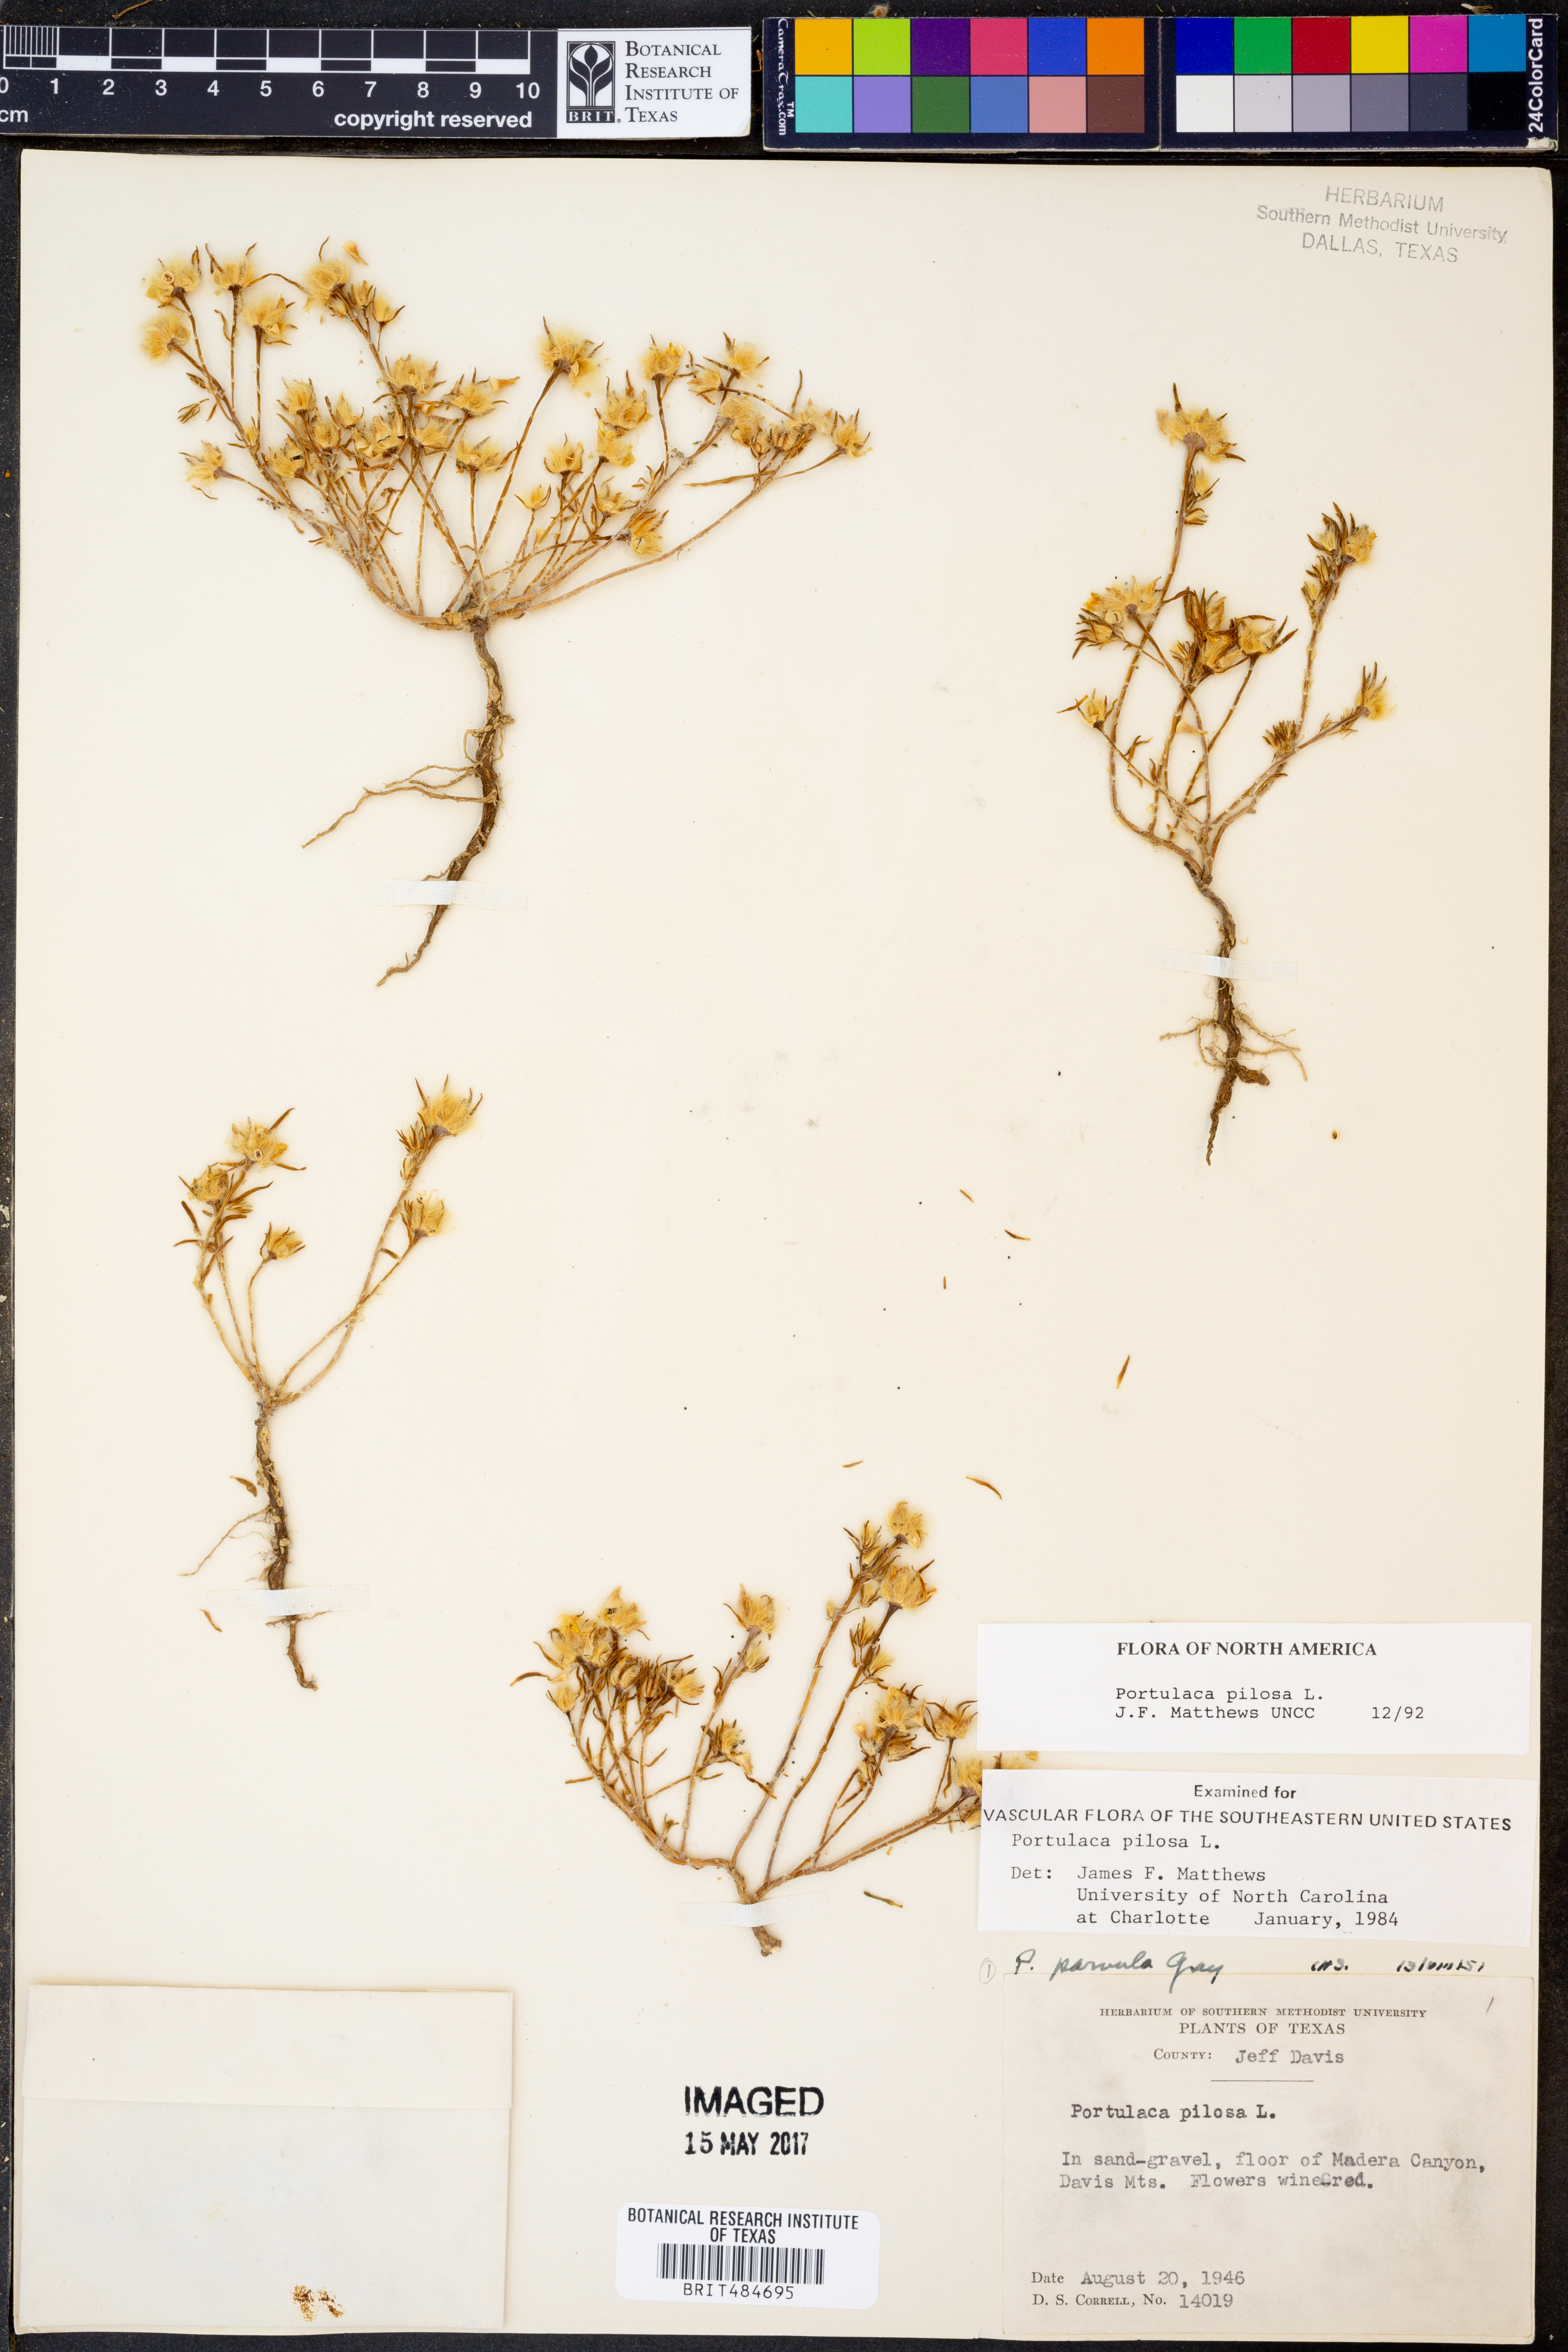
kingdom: Plantae
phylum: Tracheophyta
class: Magnoliopsida
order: Caryophyllales
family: Portulacaceae
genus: Portulaca
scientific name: Portulaca pilosa
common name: Kiss me quick
